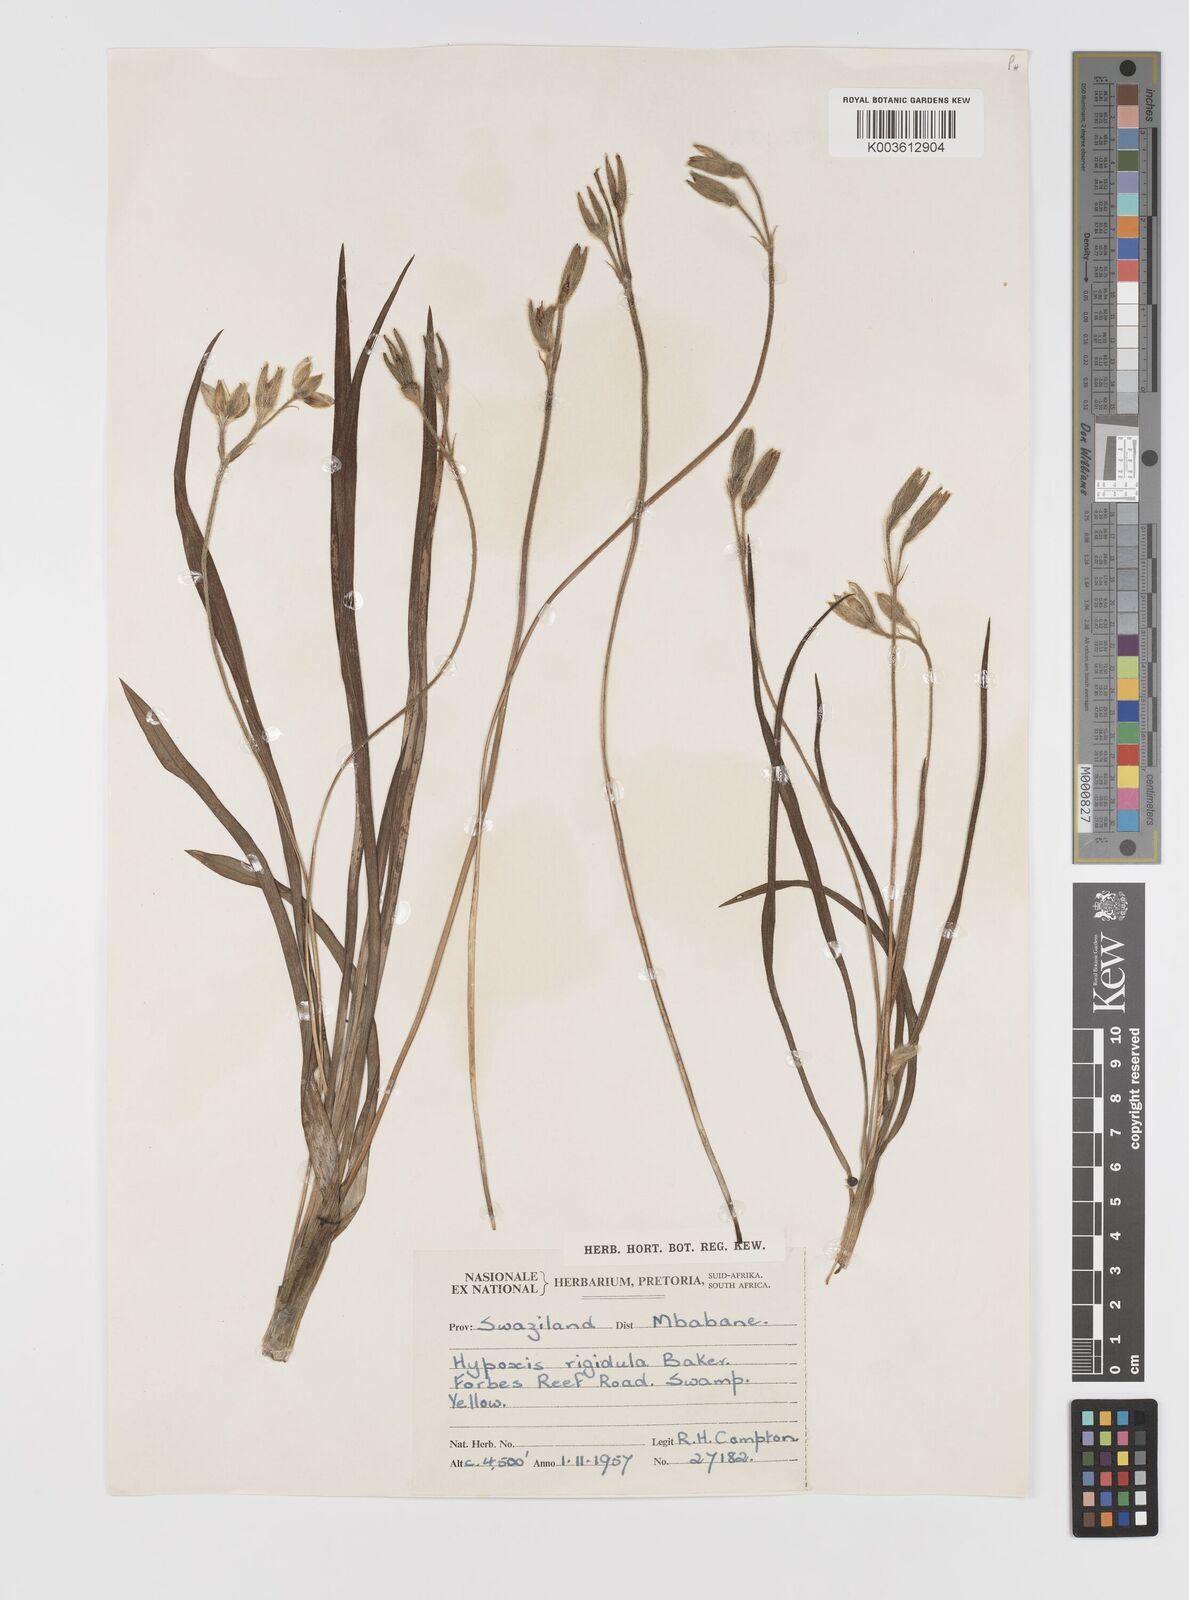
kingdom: Plantae
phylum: Tracheophyta
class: Liliopsida
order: Asparagales
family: Hypoxidaceae
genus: Hypoxis
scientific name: Hypoxis acuminata
